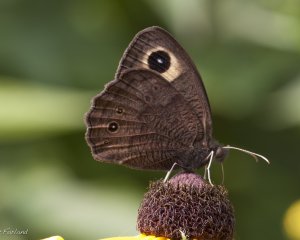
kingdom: Animalia
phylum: Arthropoda
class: Insecta
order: Lepidoptera
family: Nymphalidae
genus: Cercyonis
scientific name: Cercyonis pegala
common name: Common Wood-Nymph
